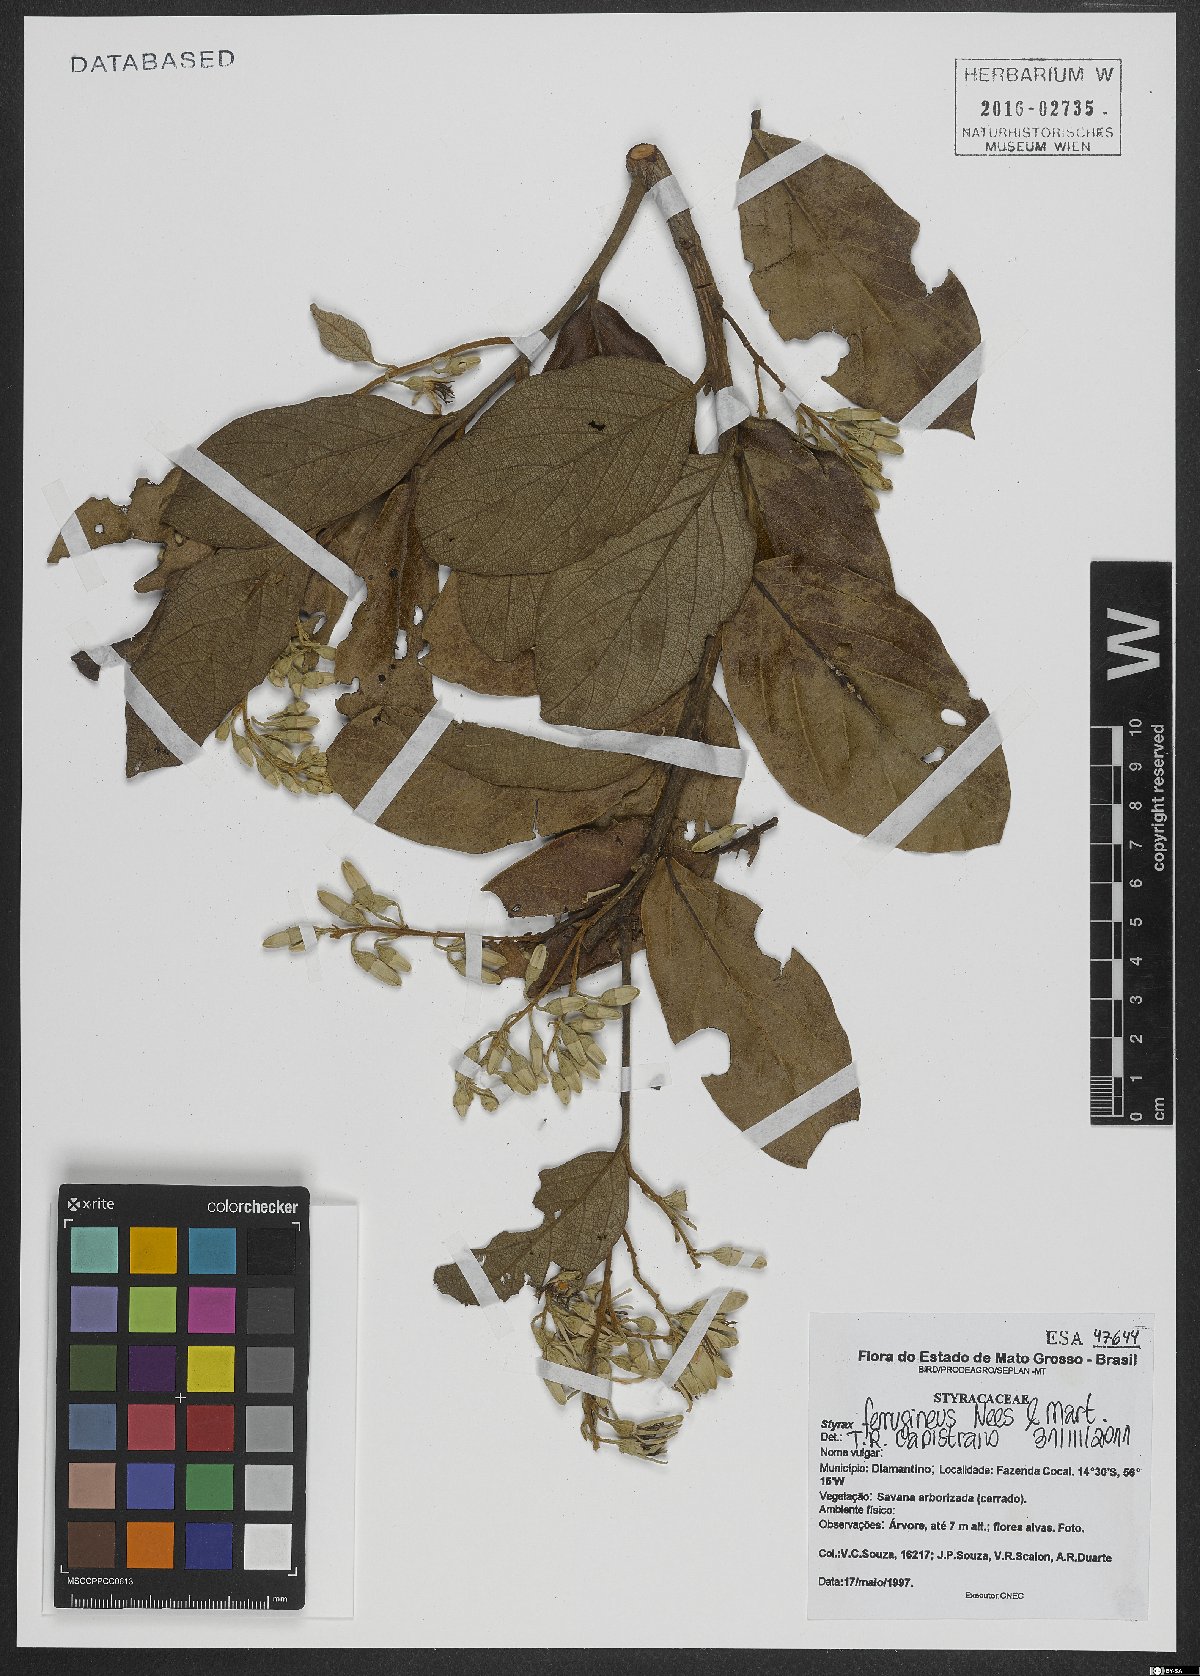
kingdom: Plantae
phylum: Tracheophyta
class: Magnoliopsida
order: Ericales
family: Styracaceae
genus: Styrax
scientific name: Styrax ferrugineus
